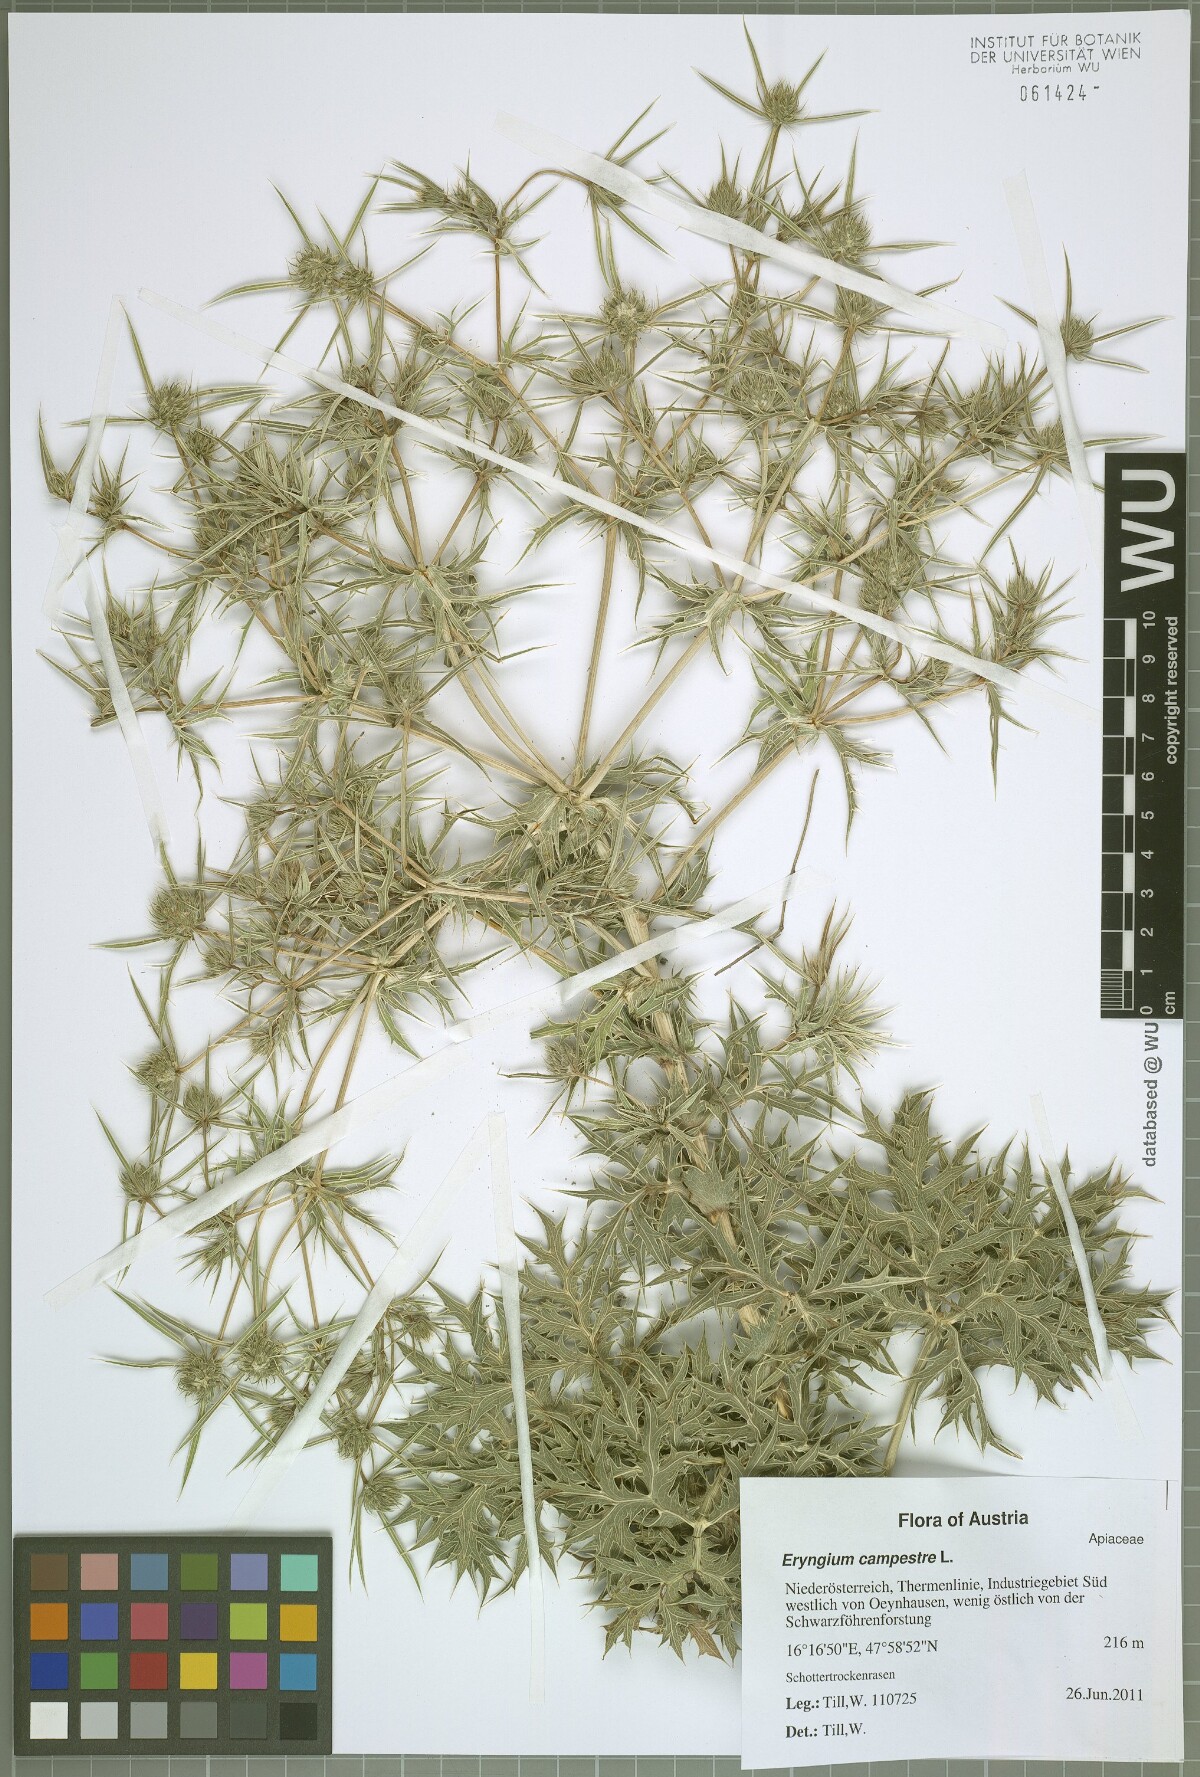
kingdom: Plantae
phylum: Tracheophyta
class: Magnoliopsida
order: Apiales
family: Apiaceae
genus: Eryngium
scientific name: Eryngium campestre
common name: Field eryngo
